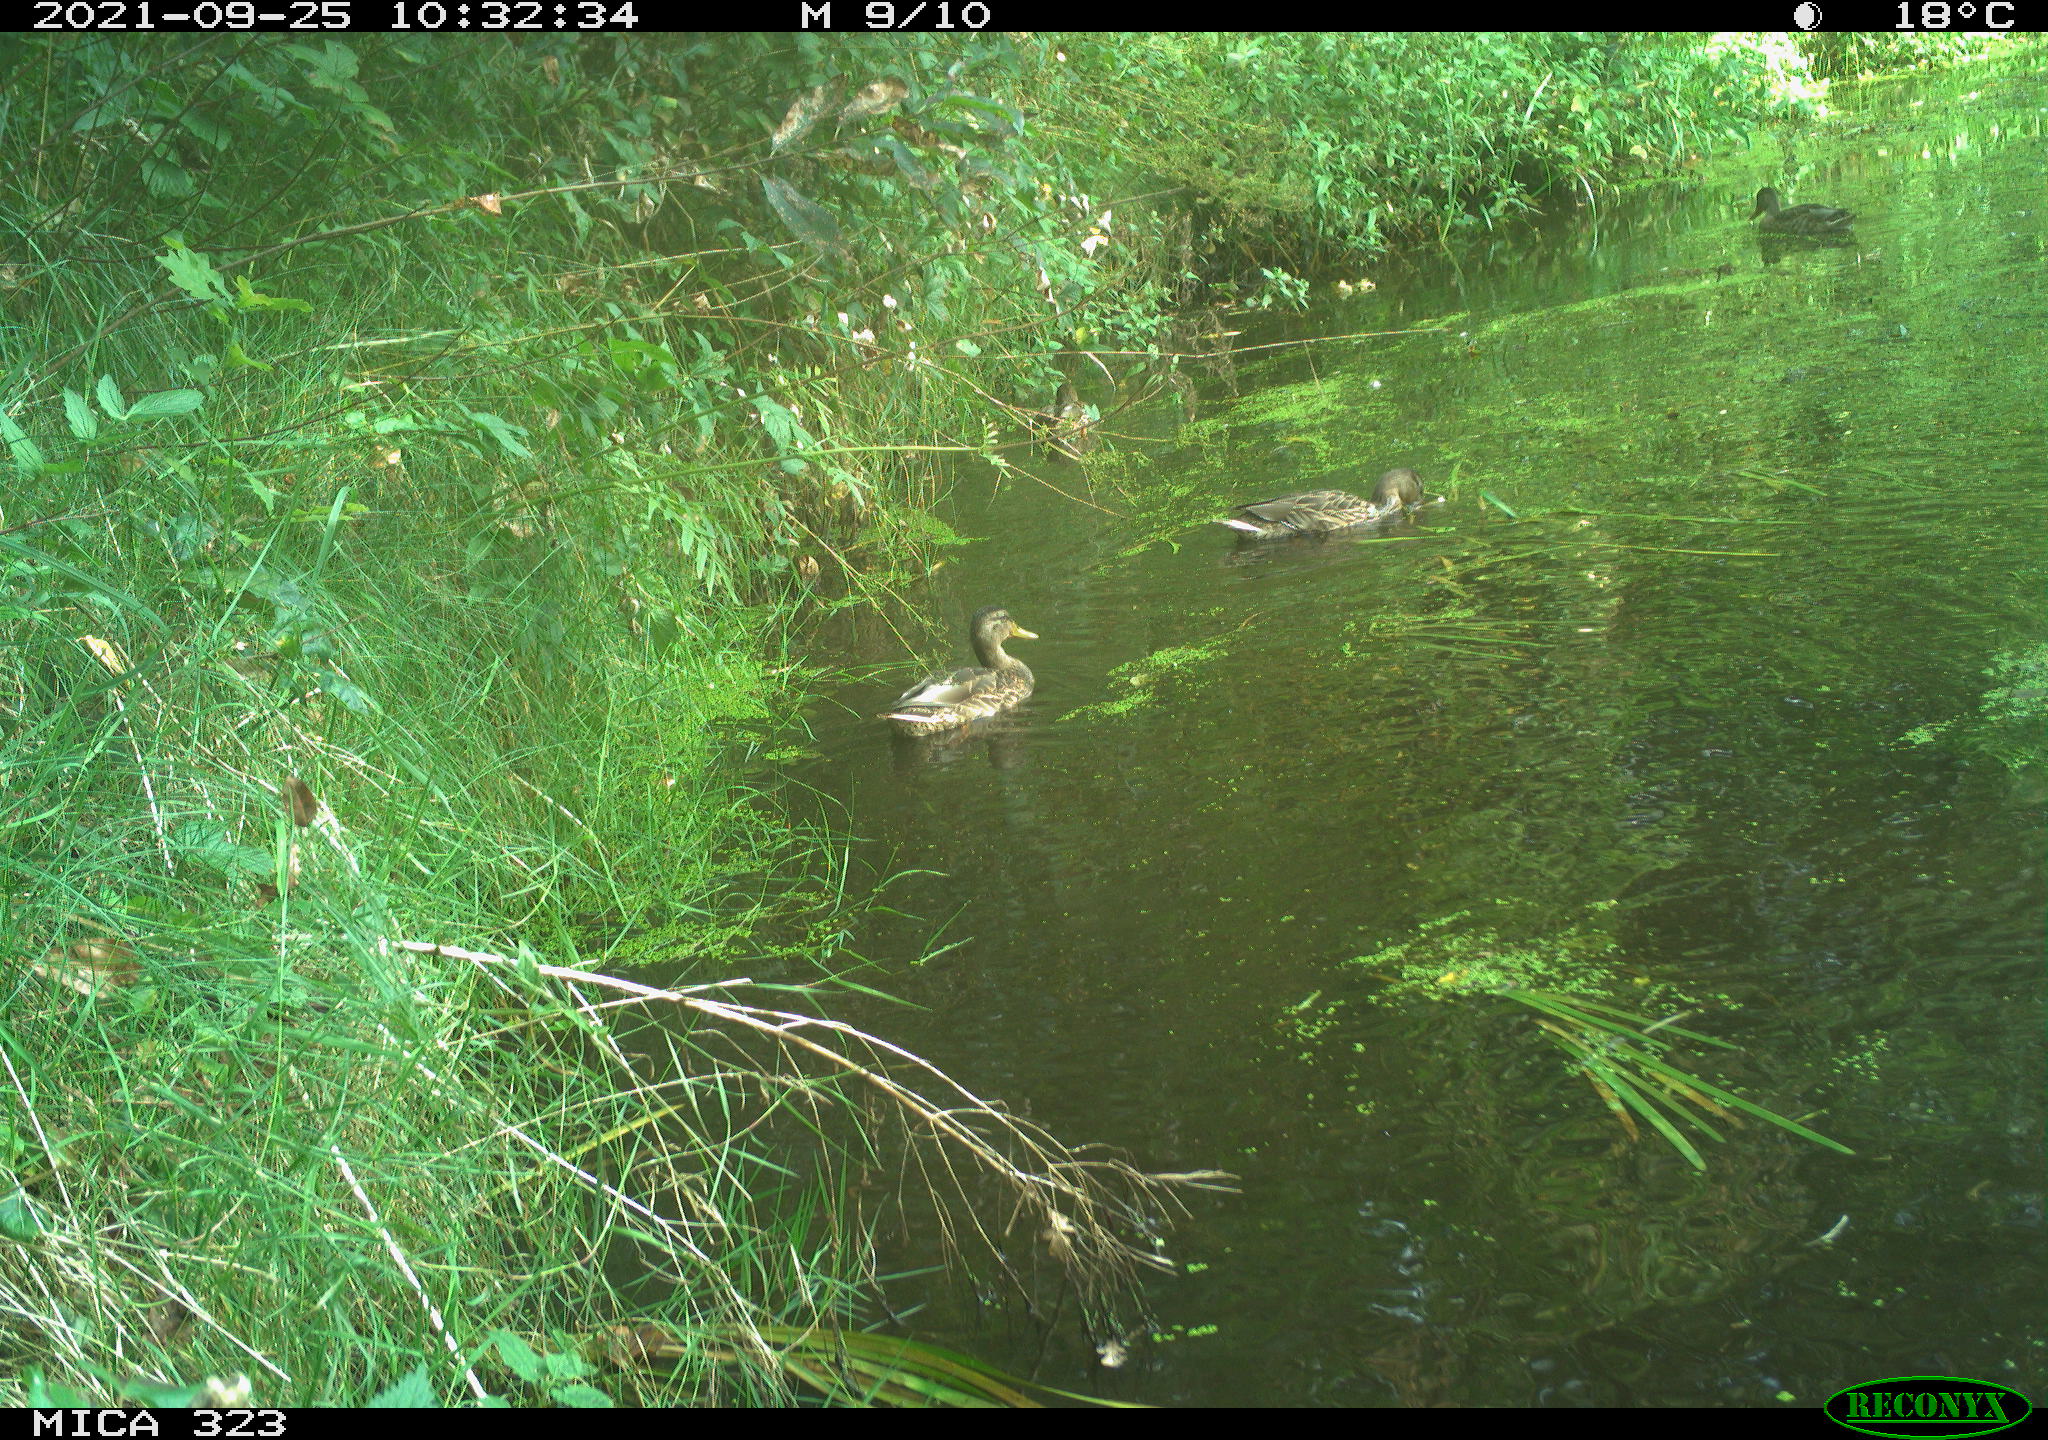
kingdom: Animalia
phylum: Chordata
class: Aves
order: Anseriformes
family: Anatidae
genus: Anas
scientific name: Anas platyrhynchos
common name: Mallard
